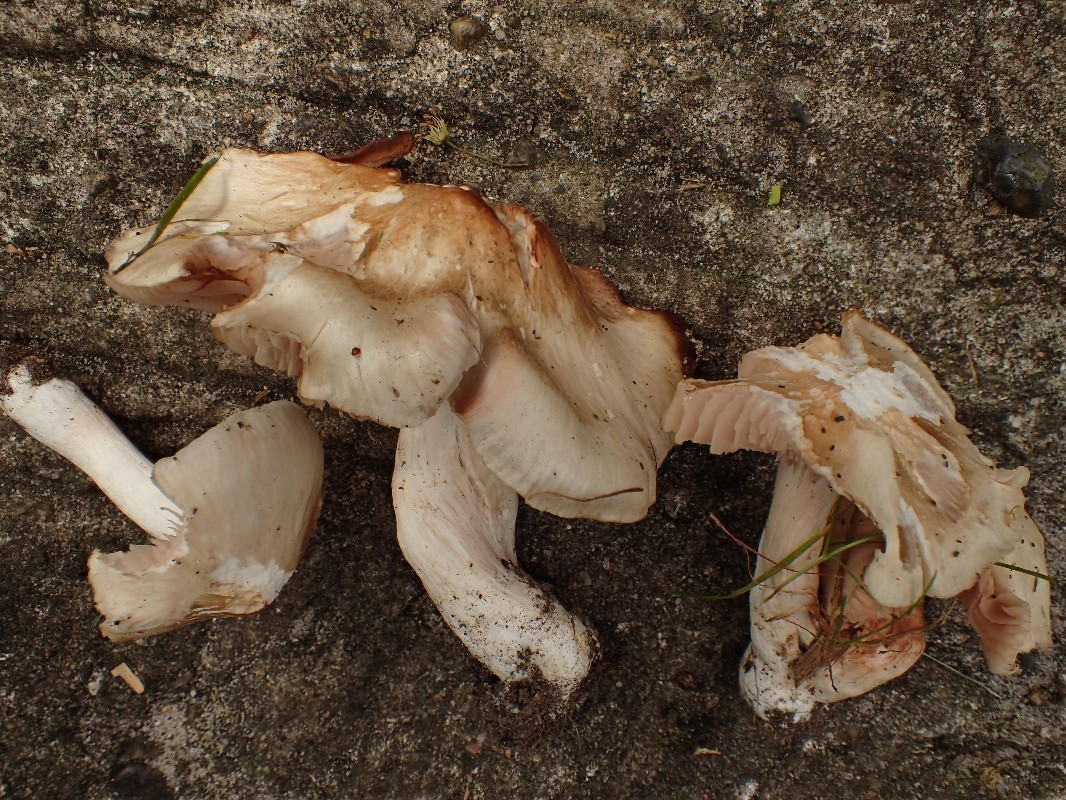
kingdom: Fungi
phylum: Basidiomycota
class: Agaricomycetes
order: Agaricales
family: Entolomataceae
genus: Entoloma
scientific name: Entoloma sepium
